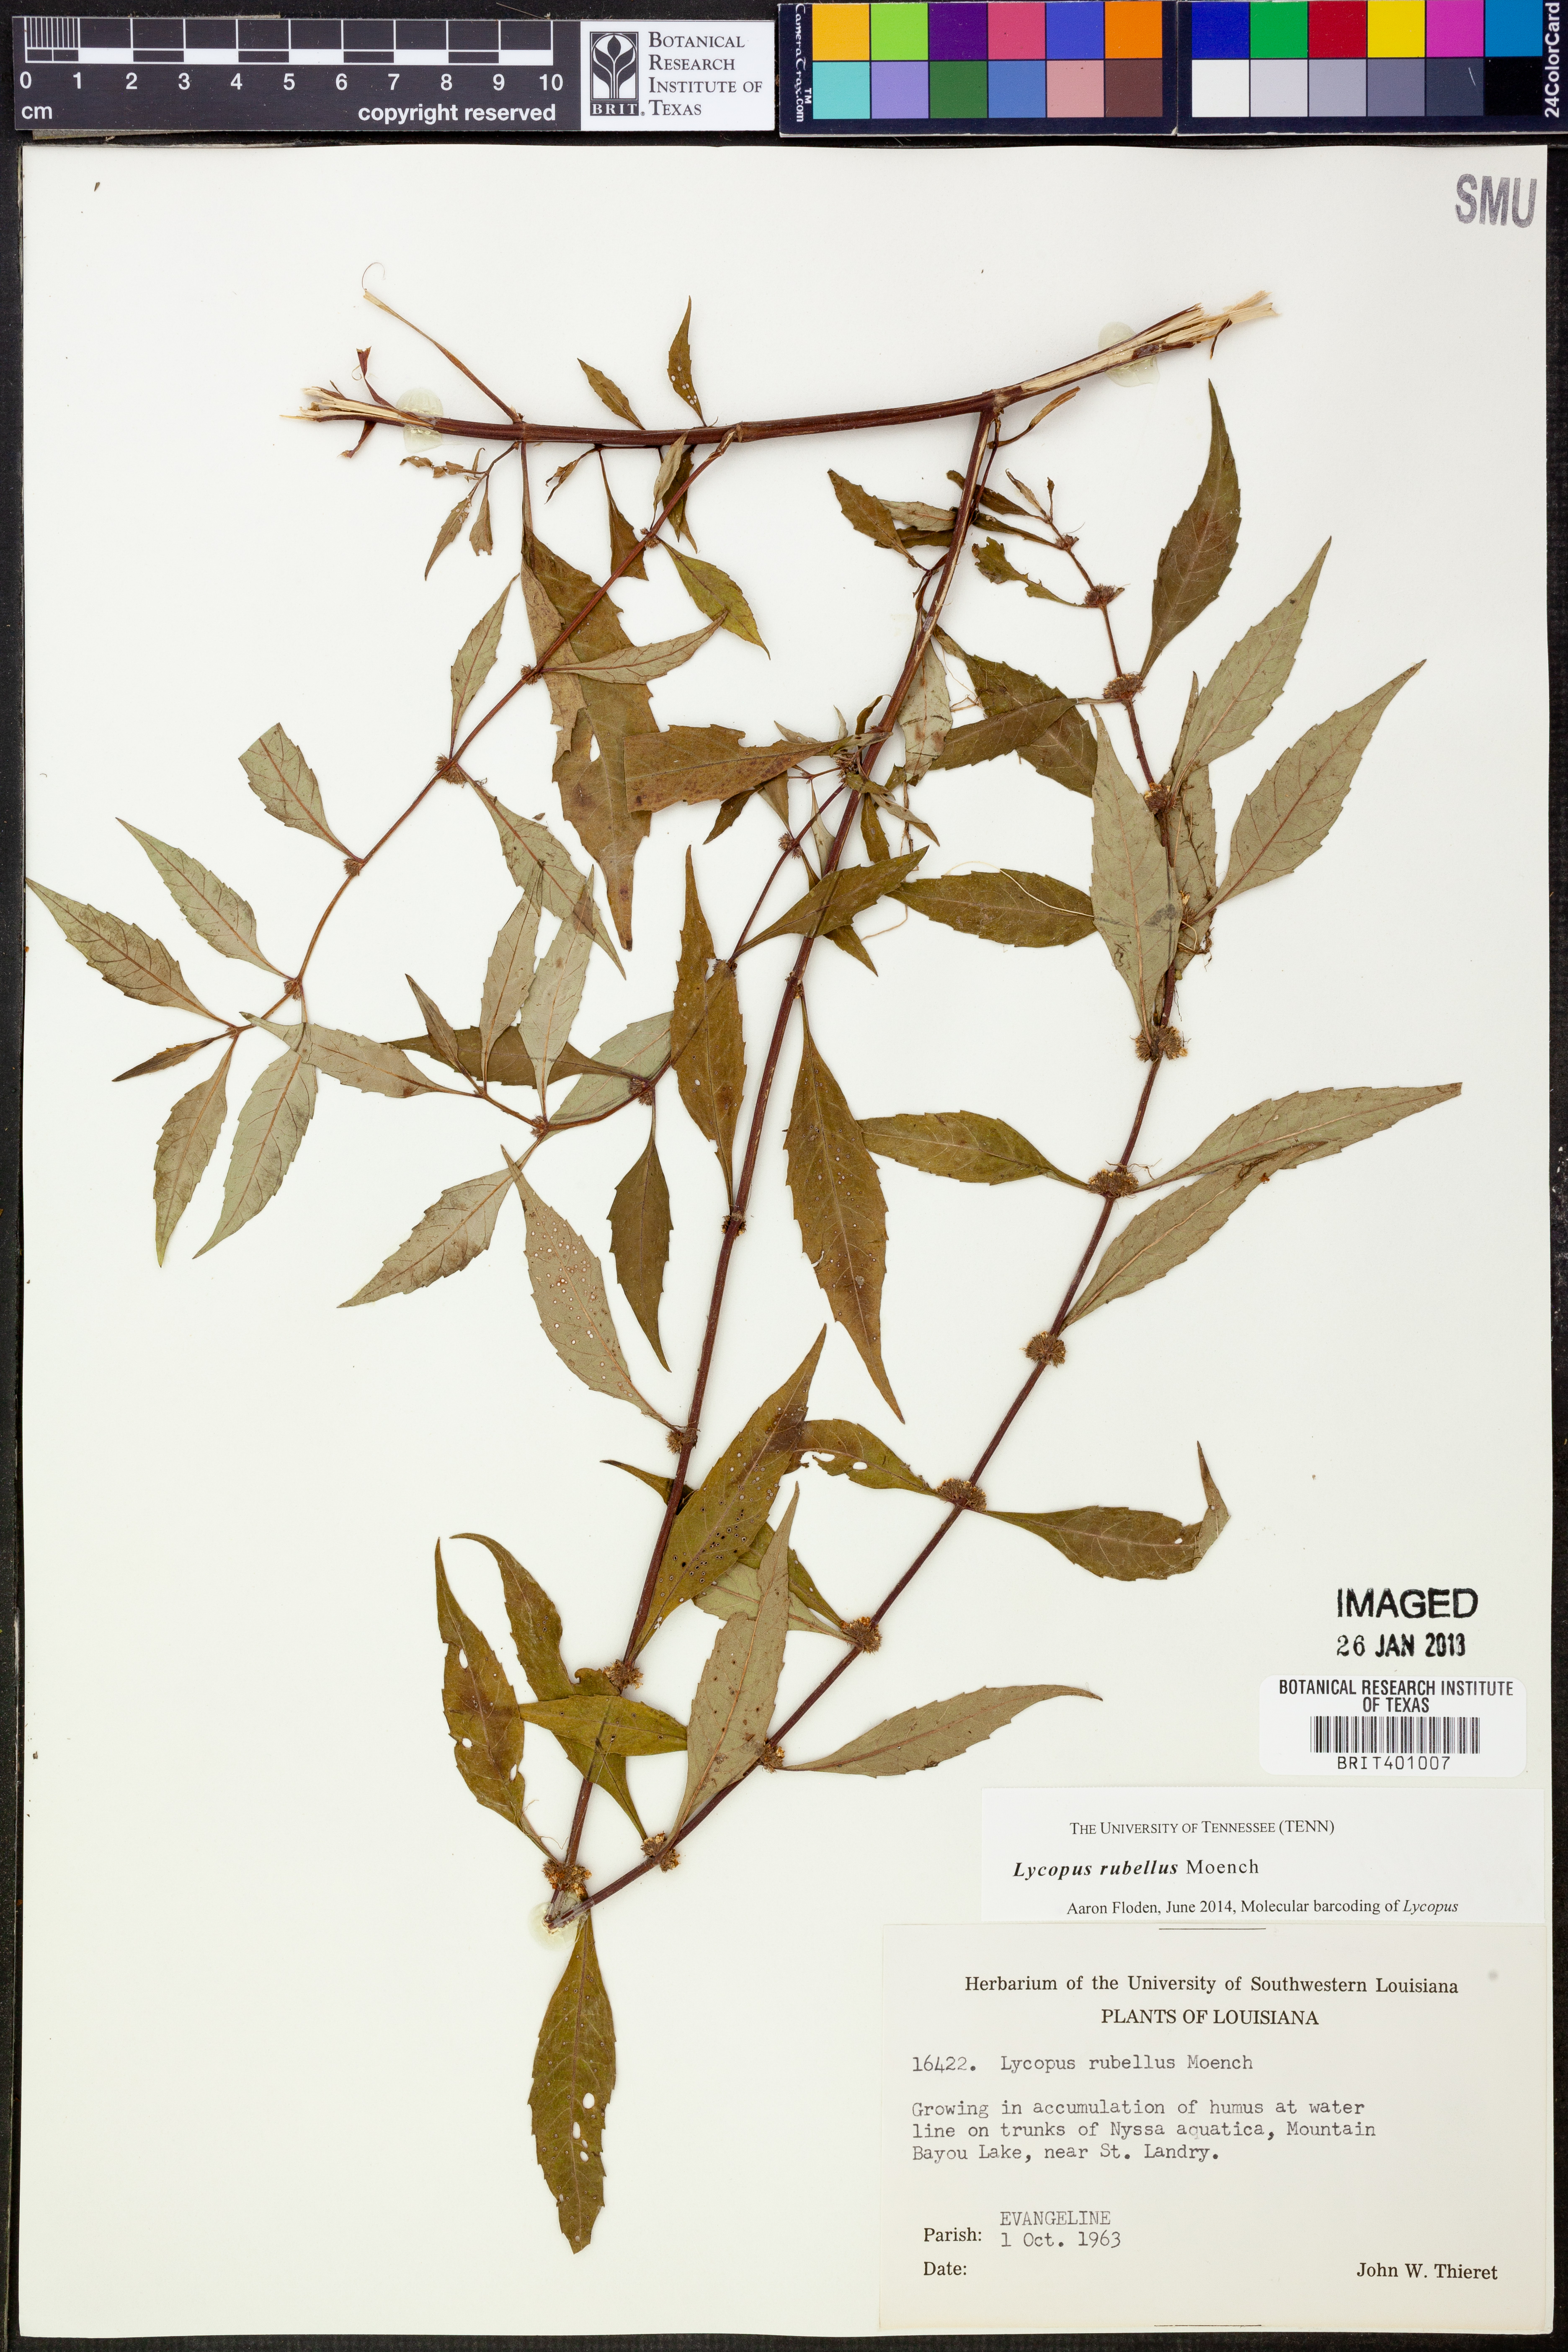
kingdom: Plantae
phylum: Tracheophyta
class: Magnoliopsida
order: Lamiales
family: Lamiaceae
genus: Lycopus
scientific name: Lycopus rubellus
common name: Stalked bugleweed
